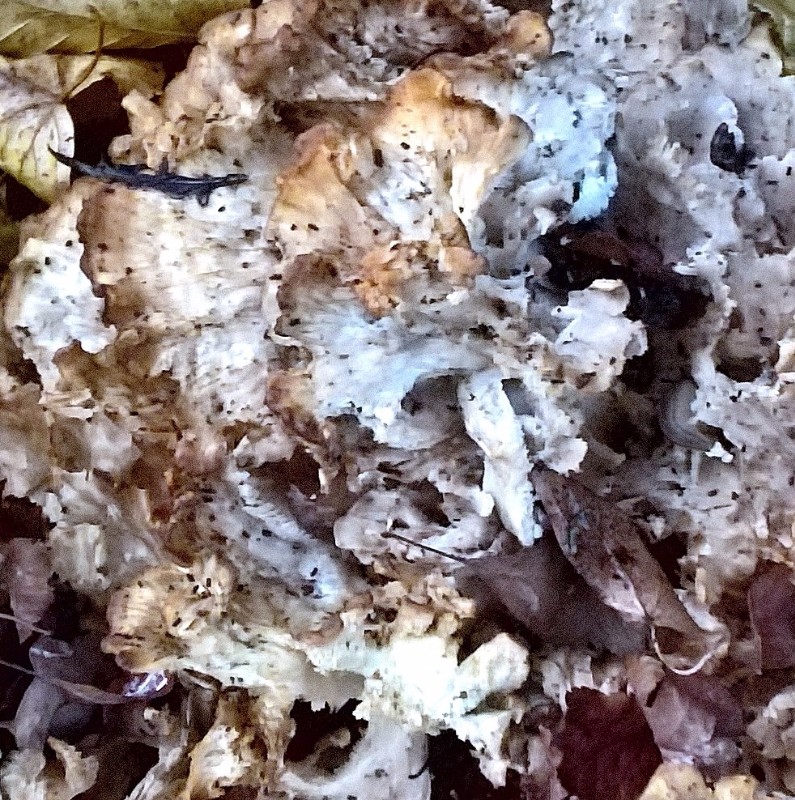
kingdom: Fungi
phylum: Basidiomycota
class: Agaricomycetes
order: Polyporales
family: Grifolaceae
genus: Grifola
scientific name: Grifola frondosa
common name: tueporesvamp
